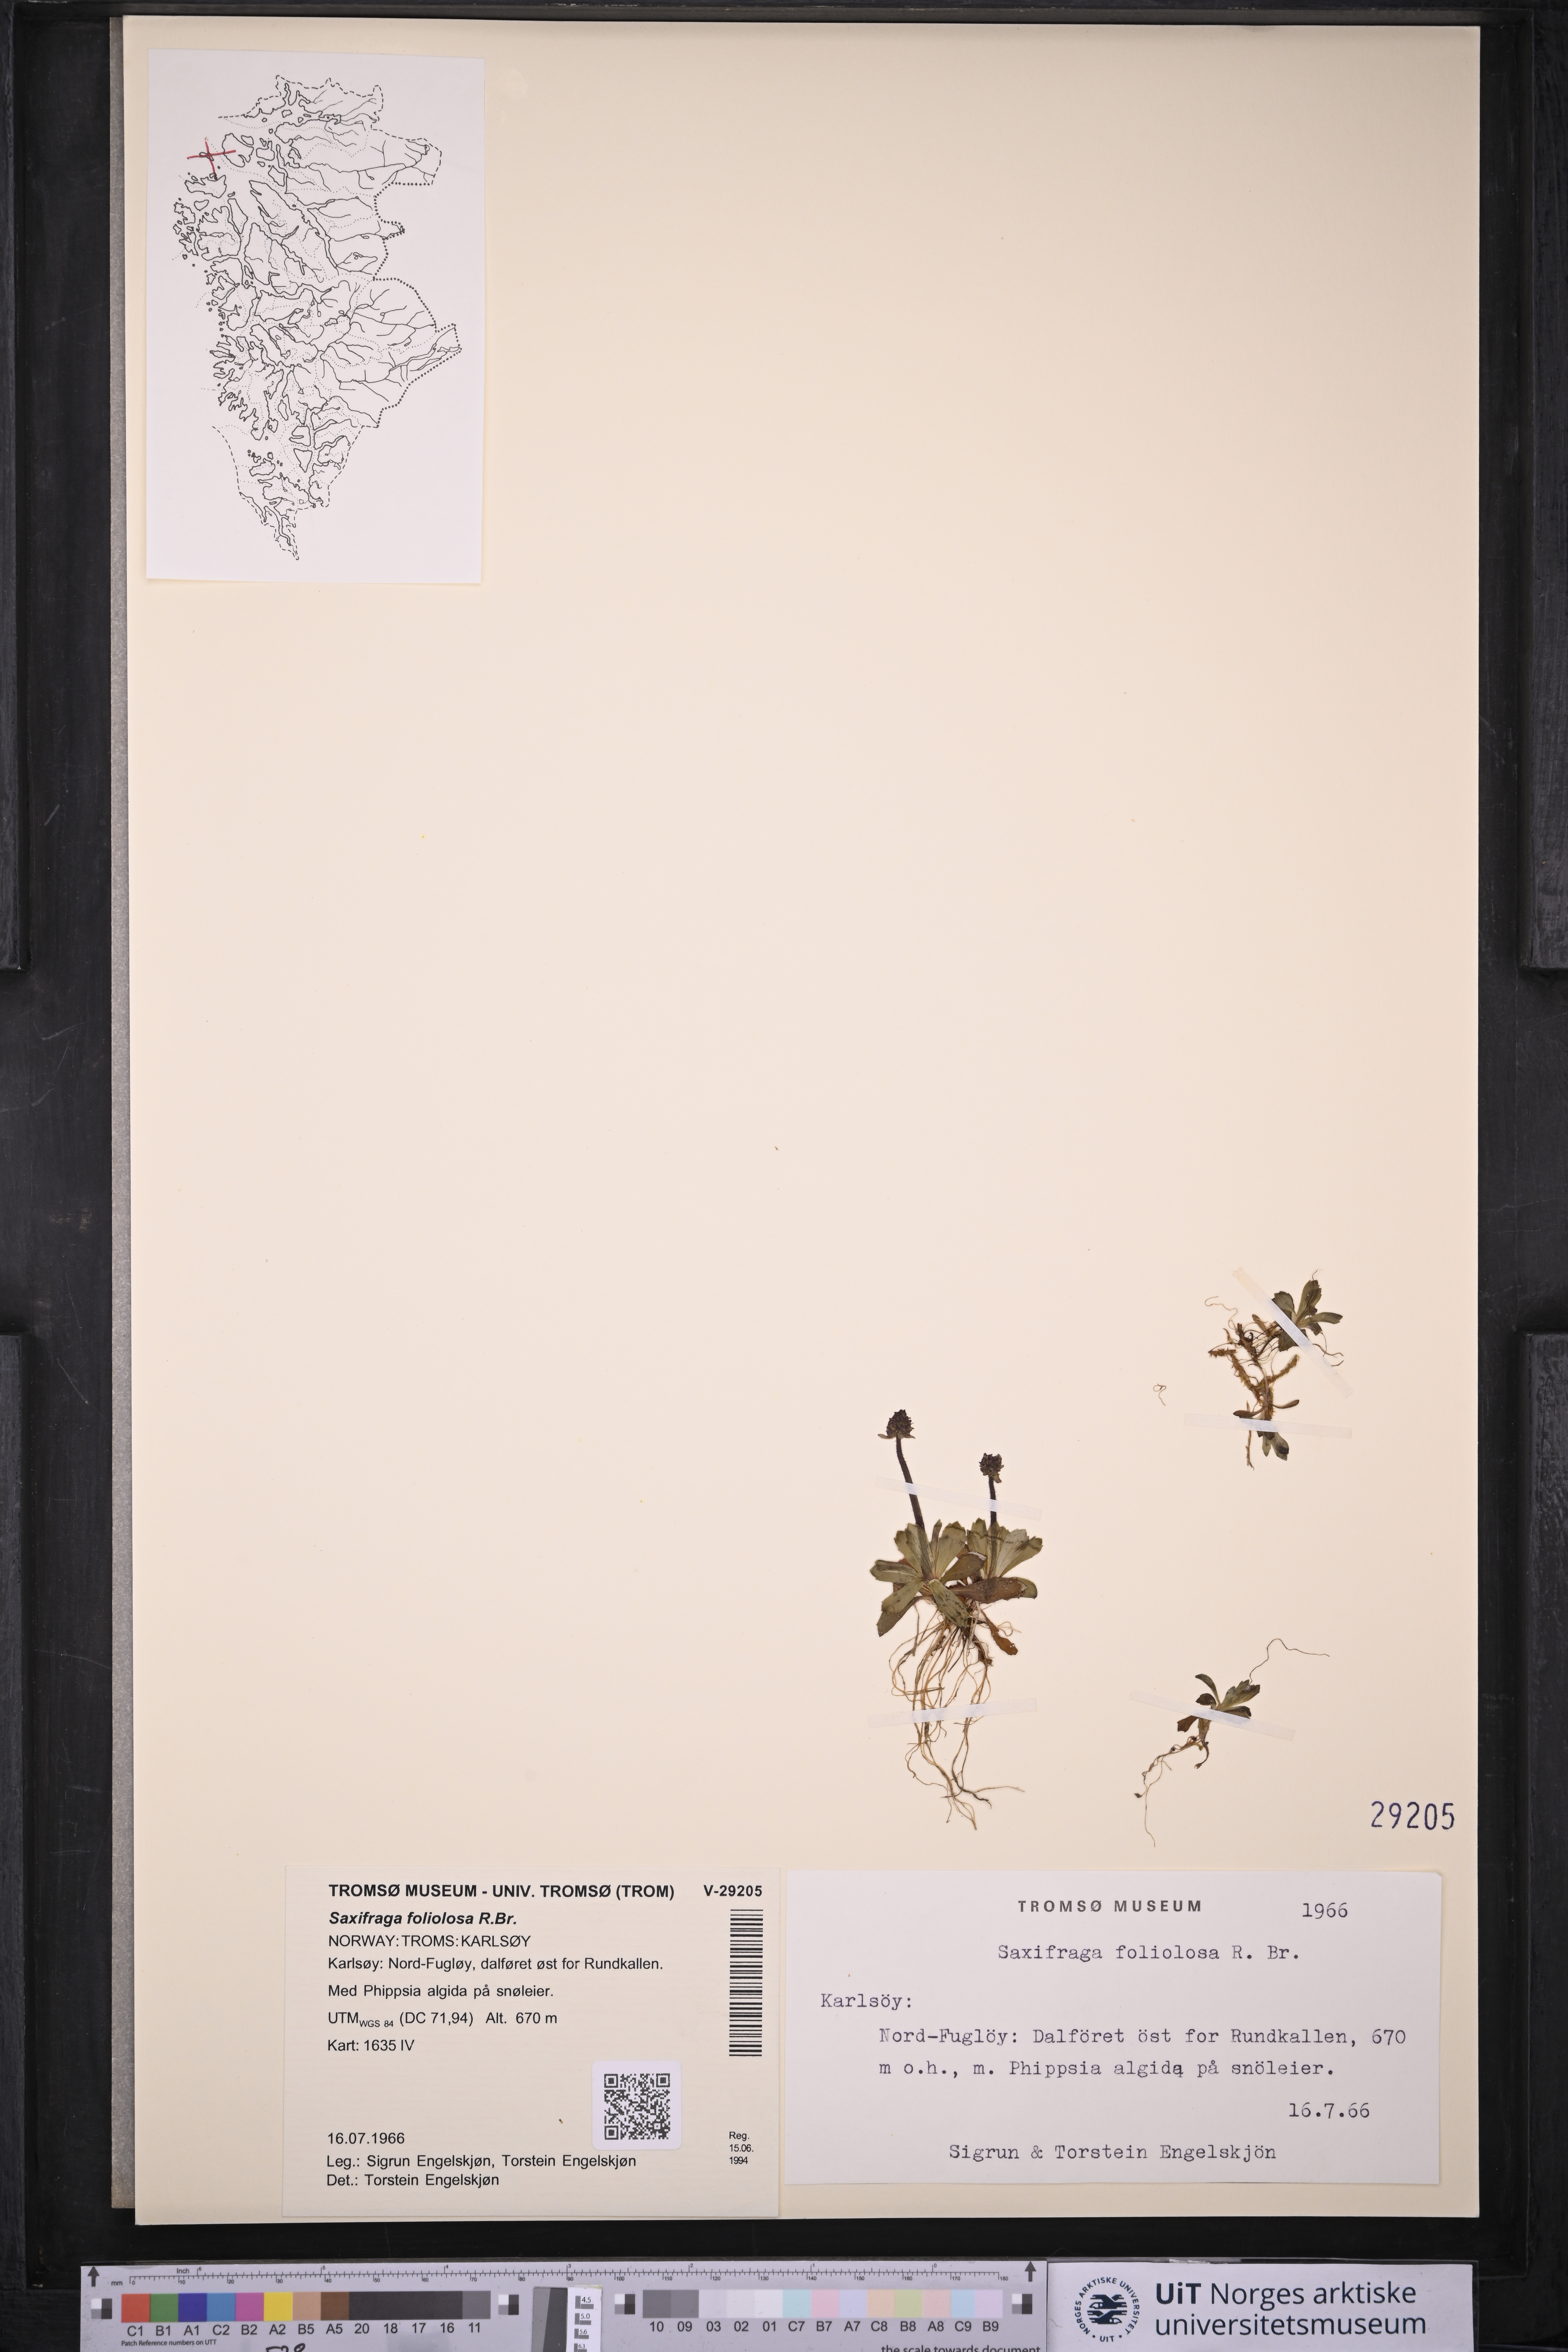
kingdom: Plantae
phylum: Tracheophyta
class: Magnoliopsida
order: Saxifragales
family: Saxifragaceae
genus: Micranthes
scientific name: Micranthes foliolosa
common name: Leafystem saxifrage
